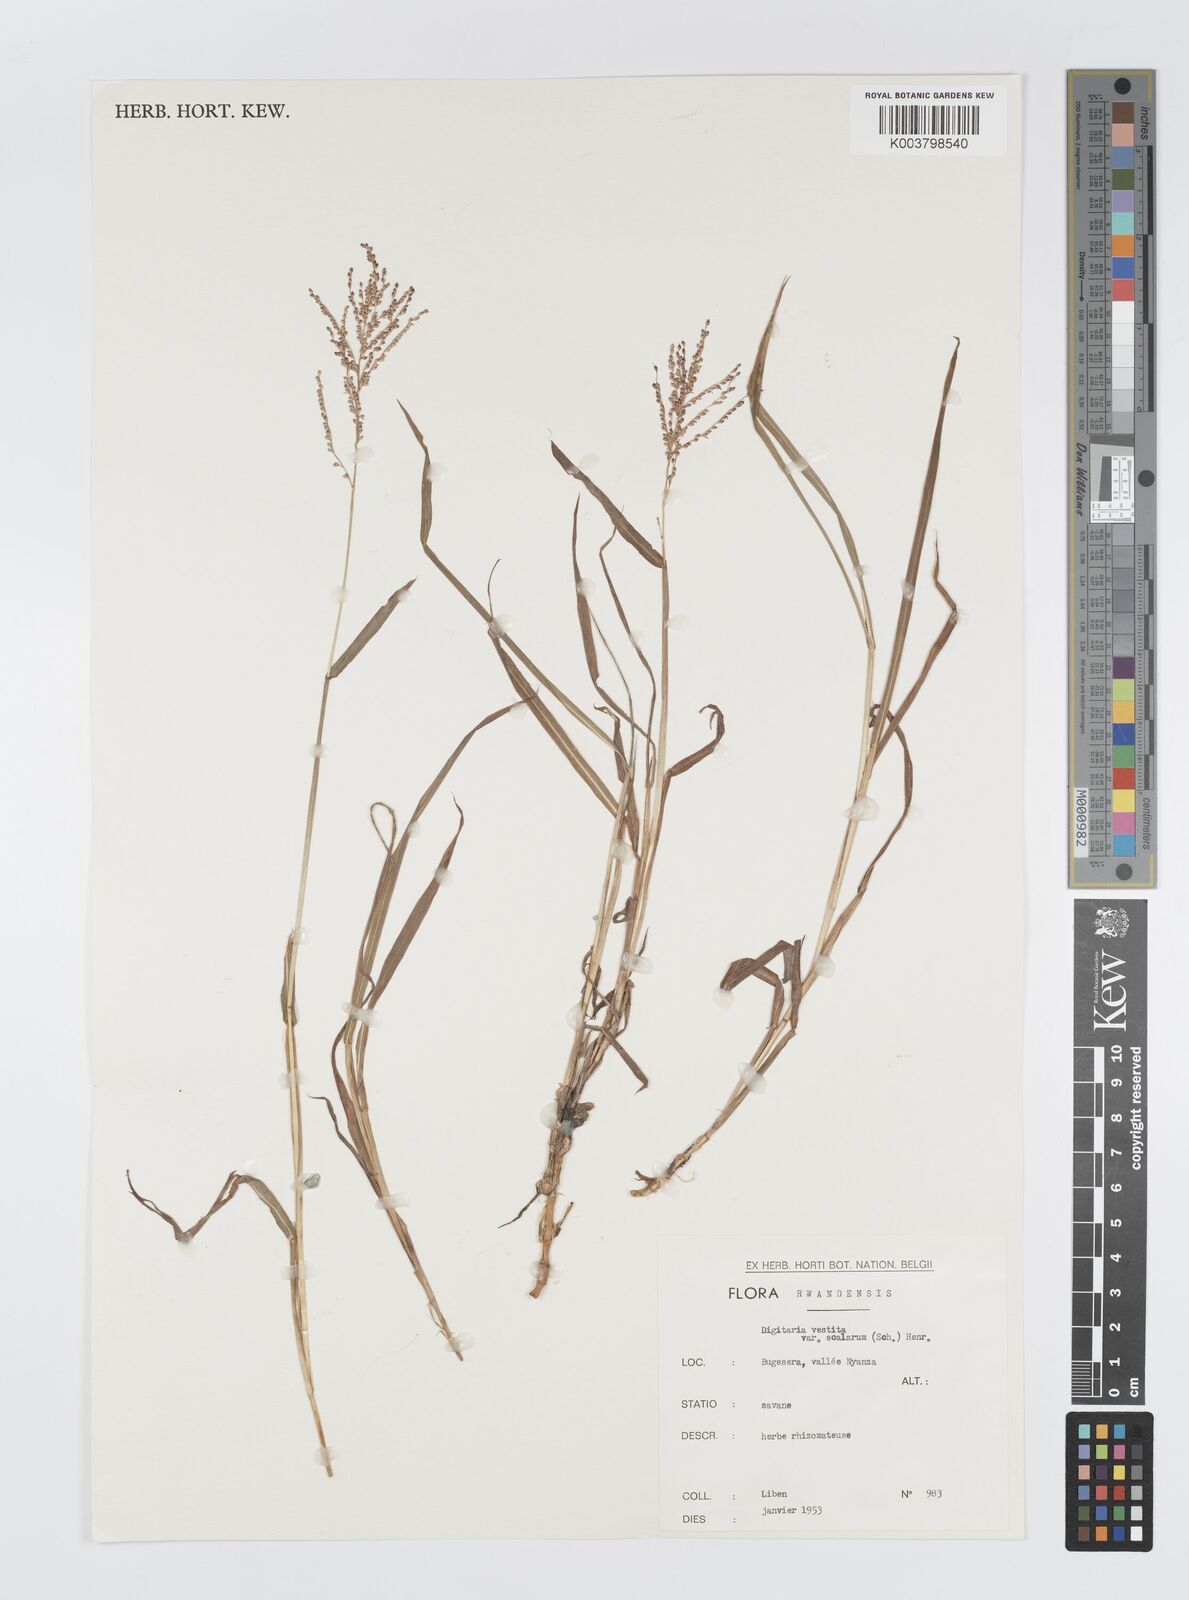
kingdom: Plantae
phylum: Tracheophyta
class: Liliopsida
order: Poales
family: Poaceae
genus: Digitaria
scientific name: Digitaria abyssinica
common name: African couchgrass
